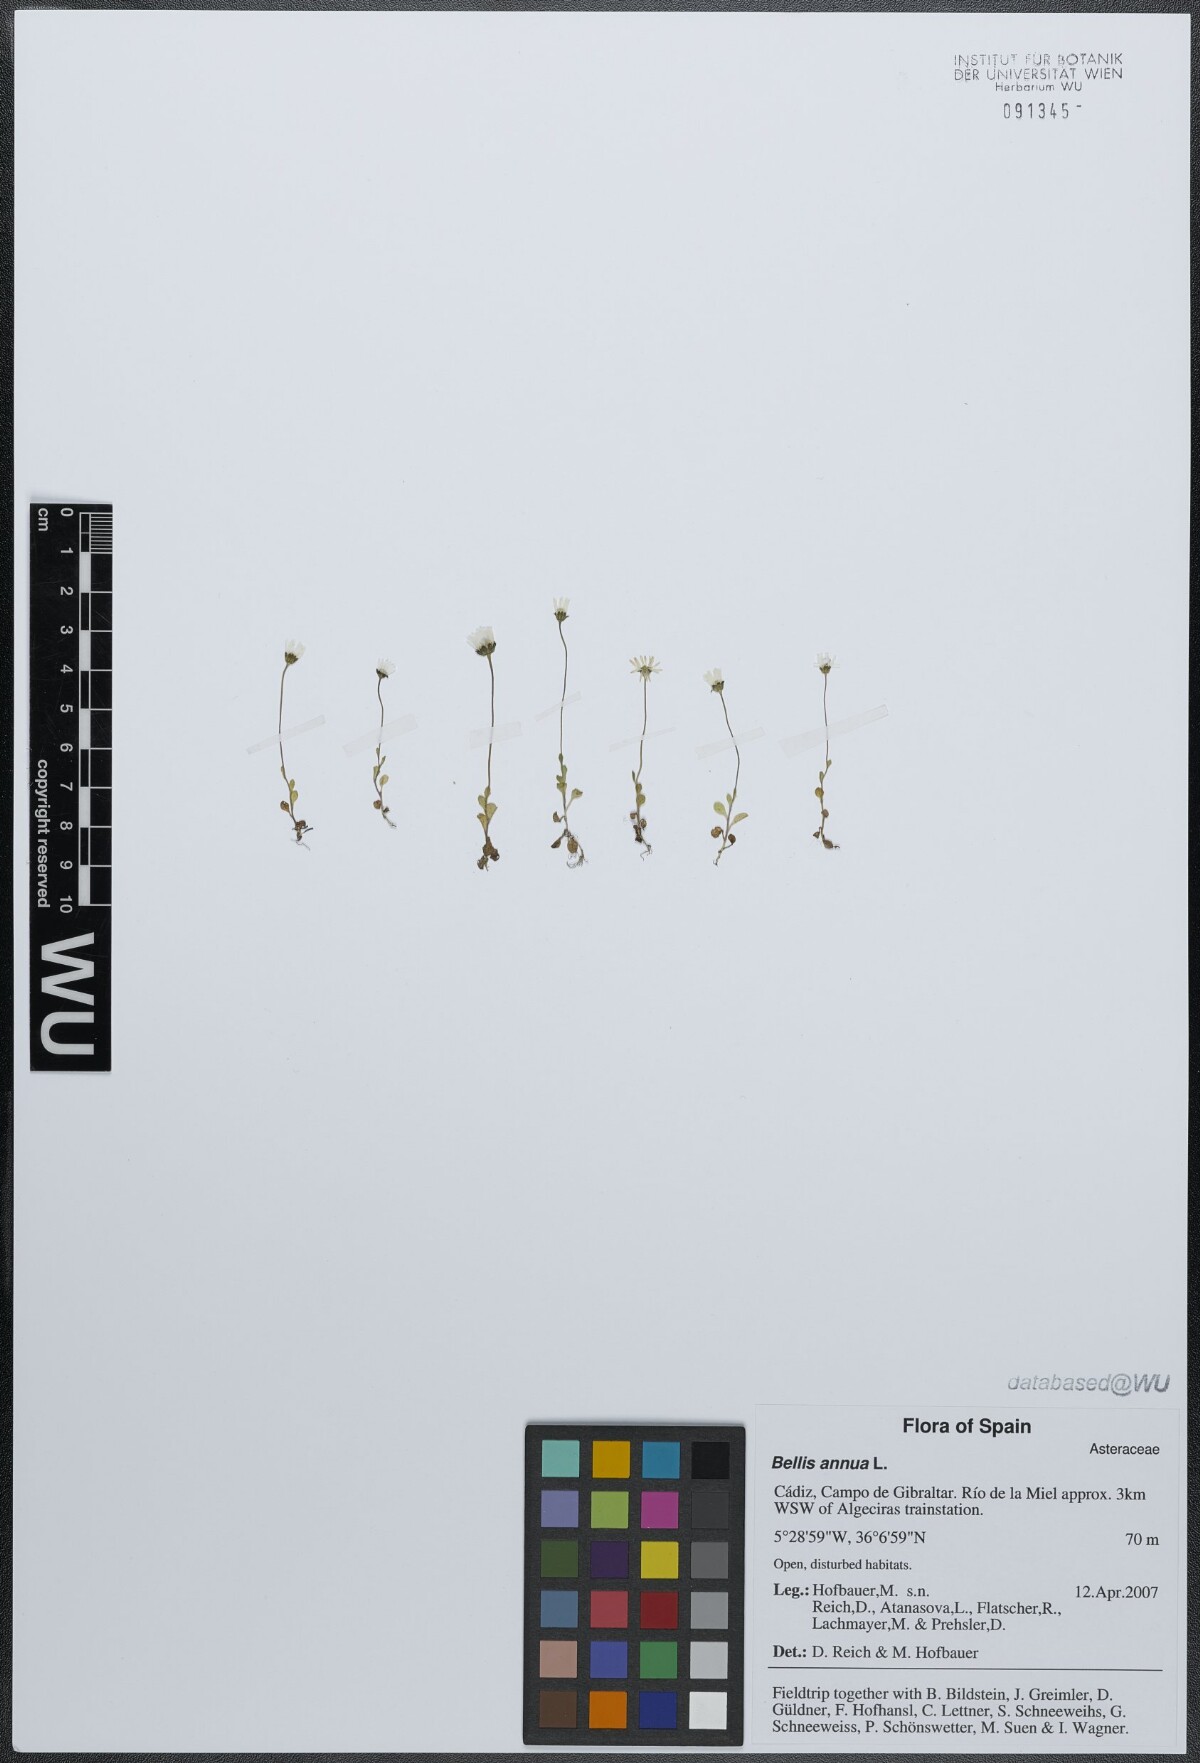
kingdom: Plantae
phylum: Tracheophyta
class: Magnoliopsida
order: Asterales
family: Asteraceae
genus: Bellis
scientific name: Bellis annua
